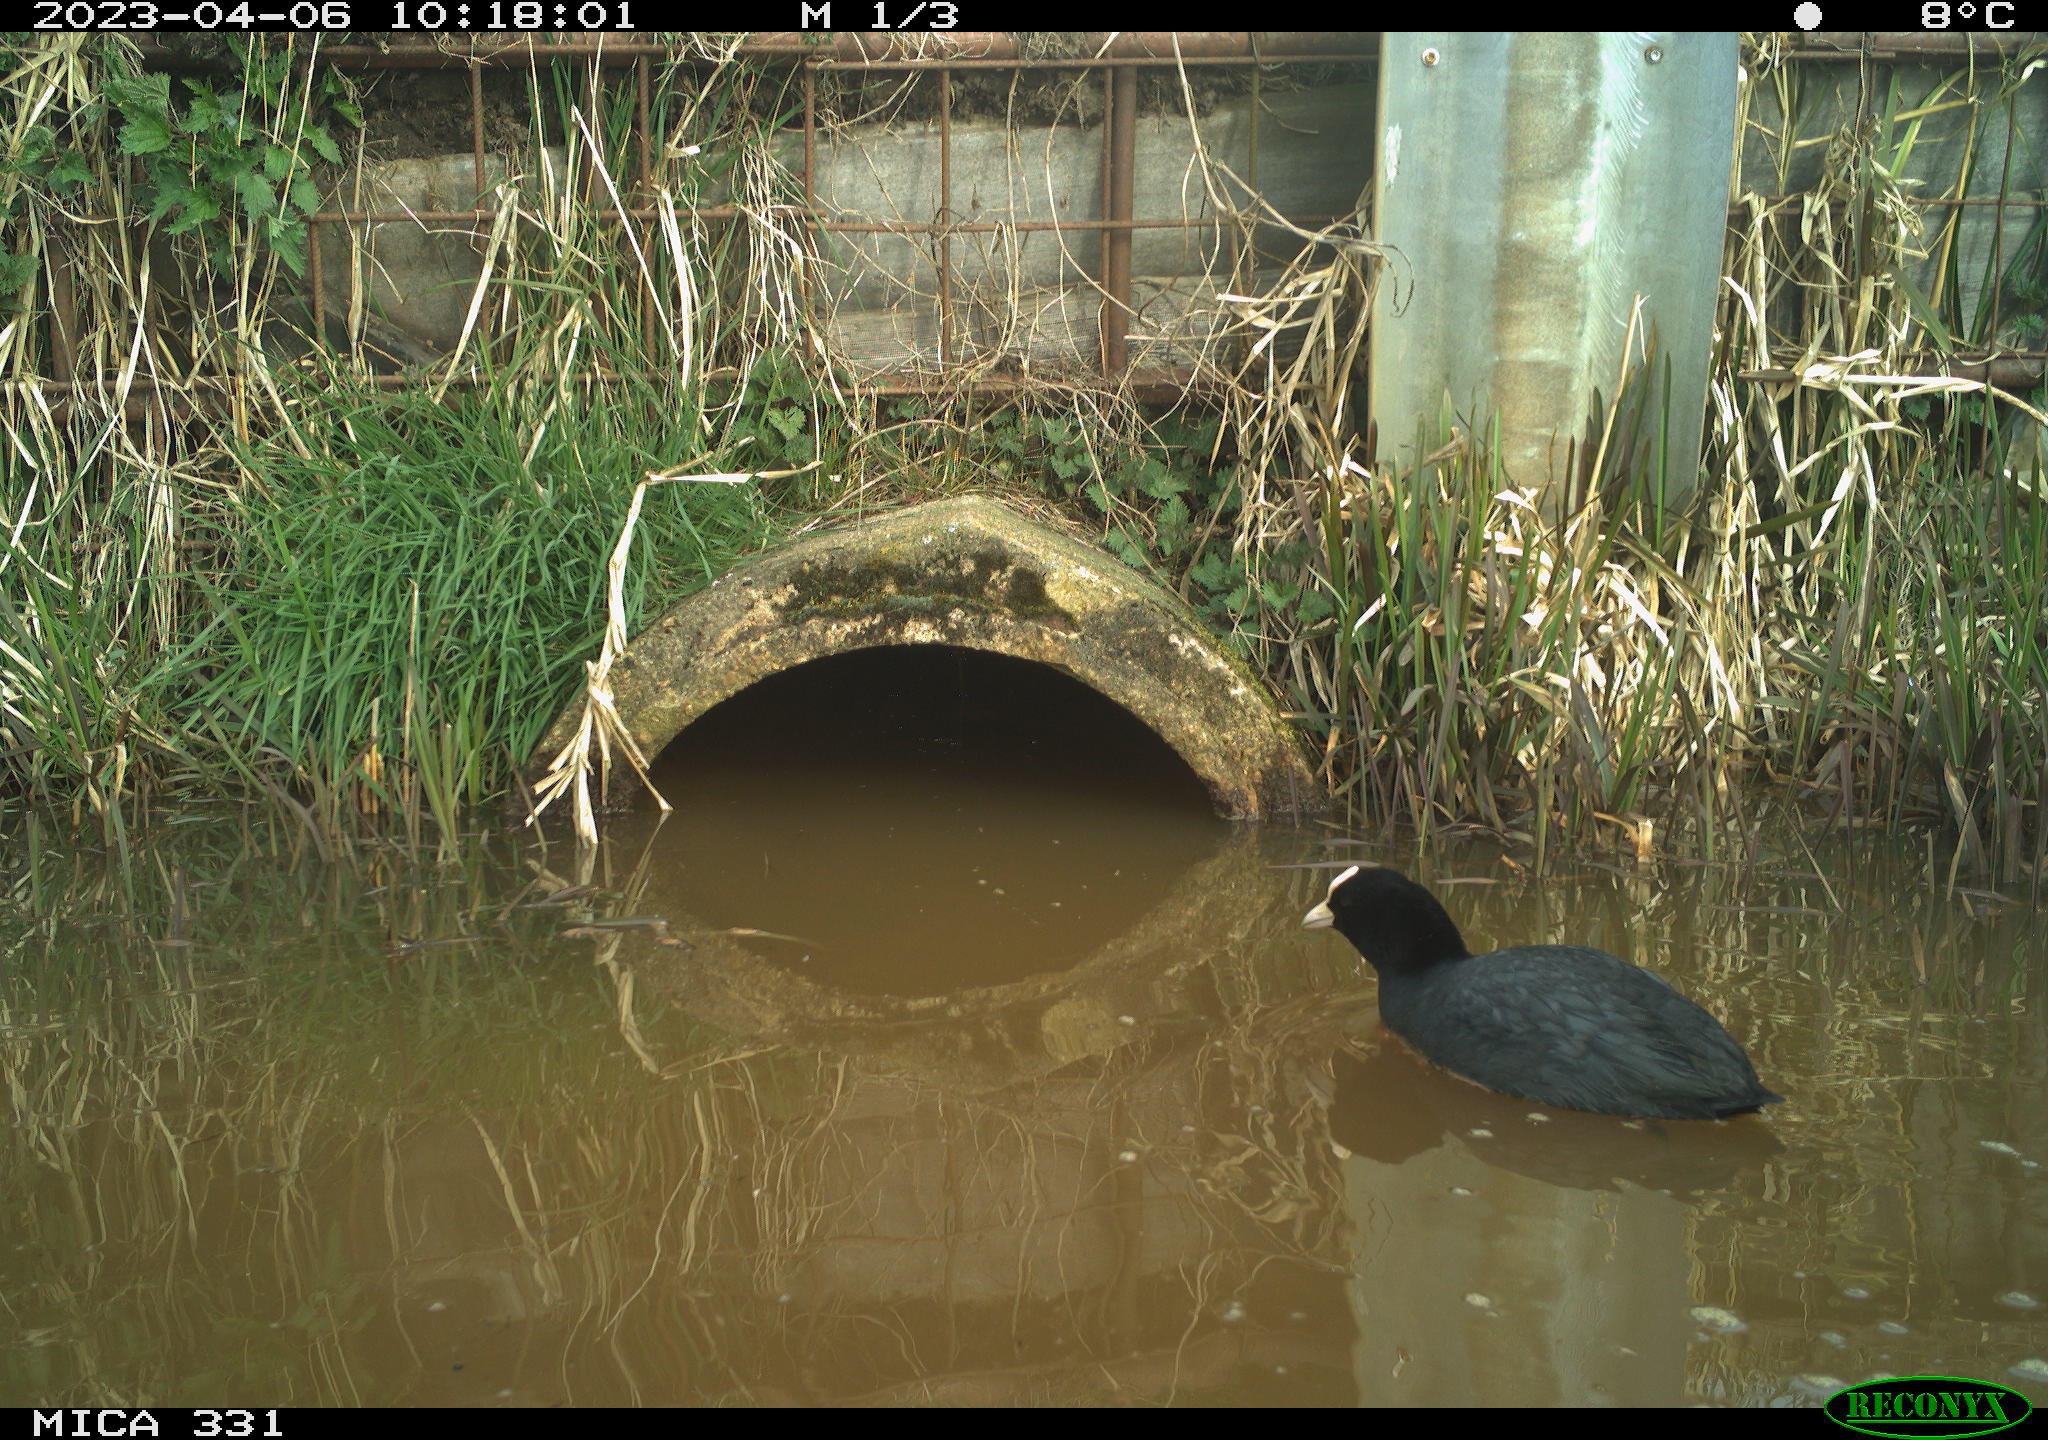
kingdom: Animalia
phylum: Chordata
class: Aves
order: Gruiformes
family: Rallidae
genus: Fulica
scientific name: Fulica atra
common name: Eurasian coot
